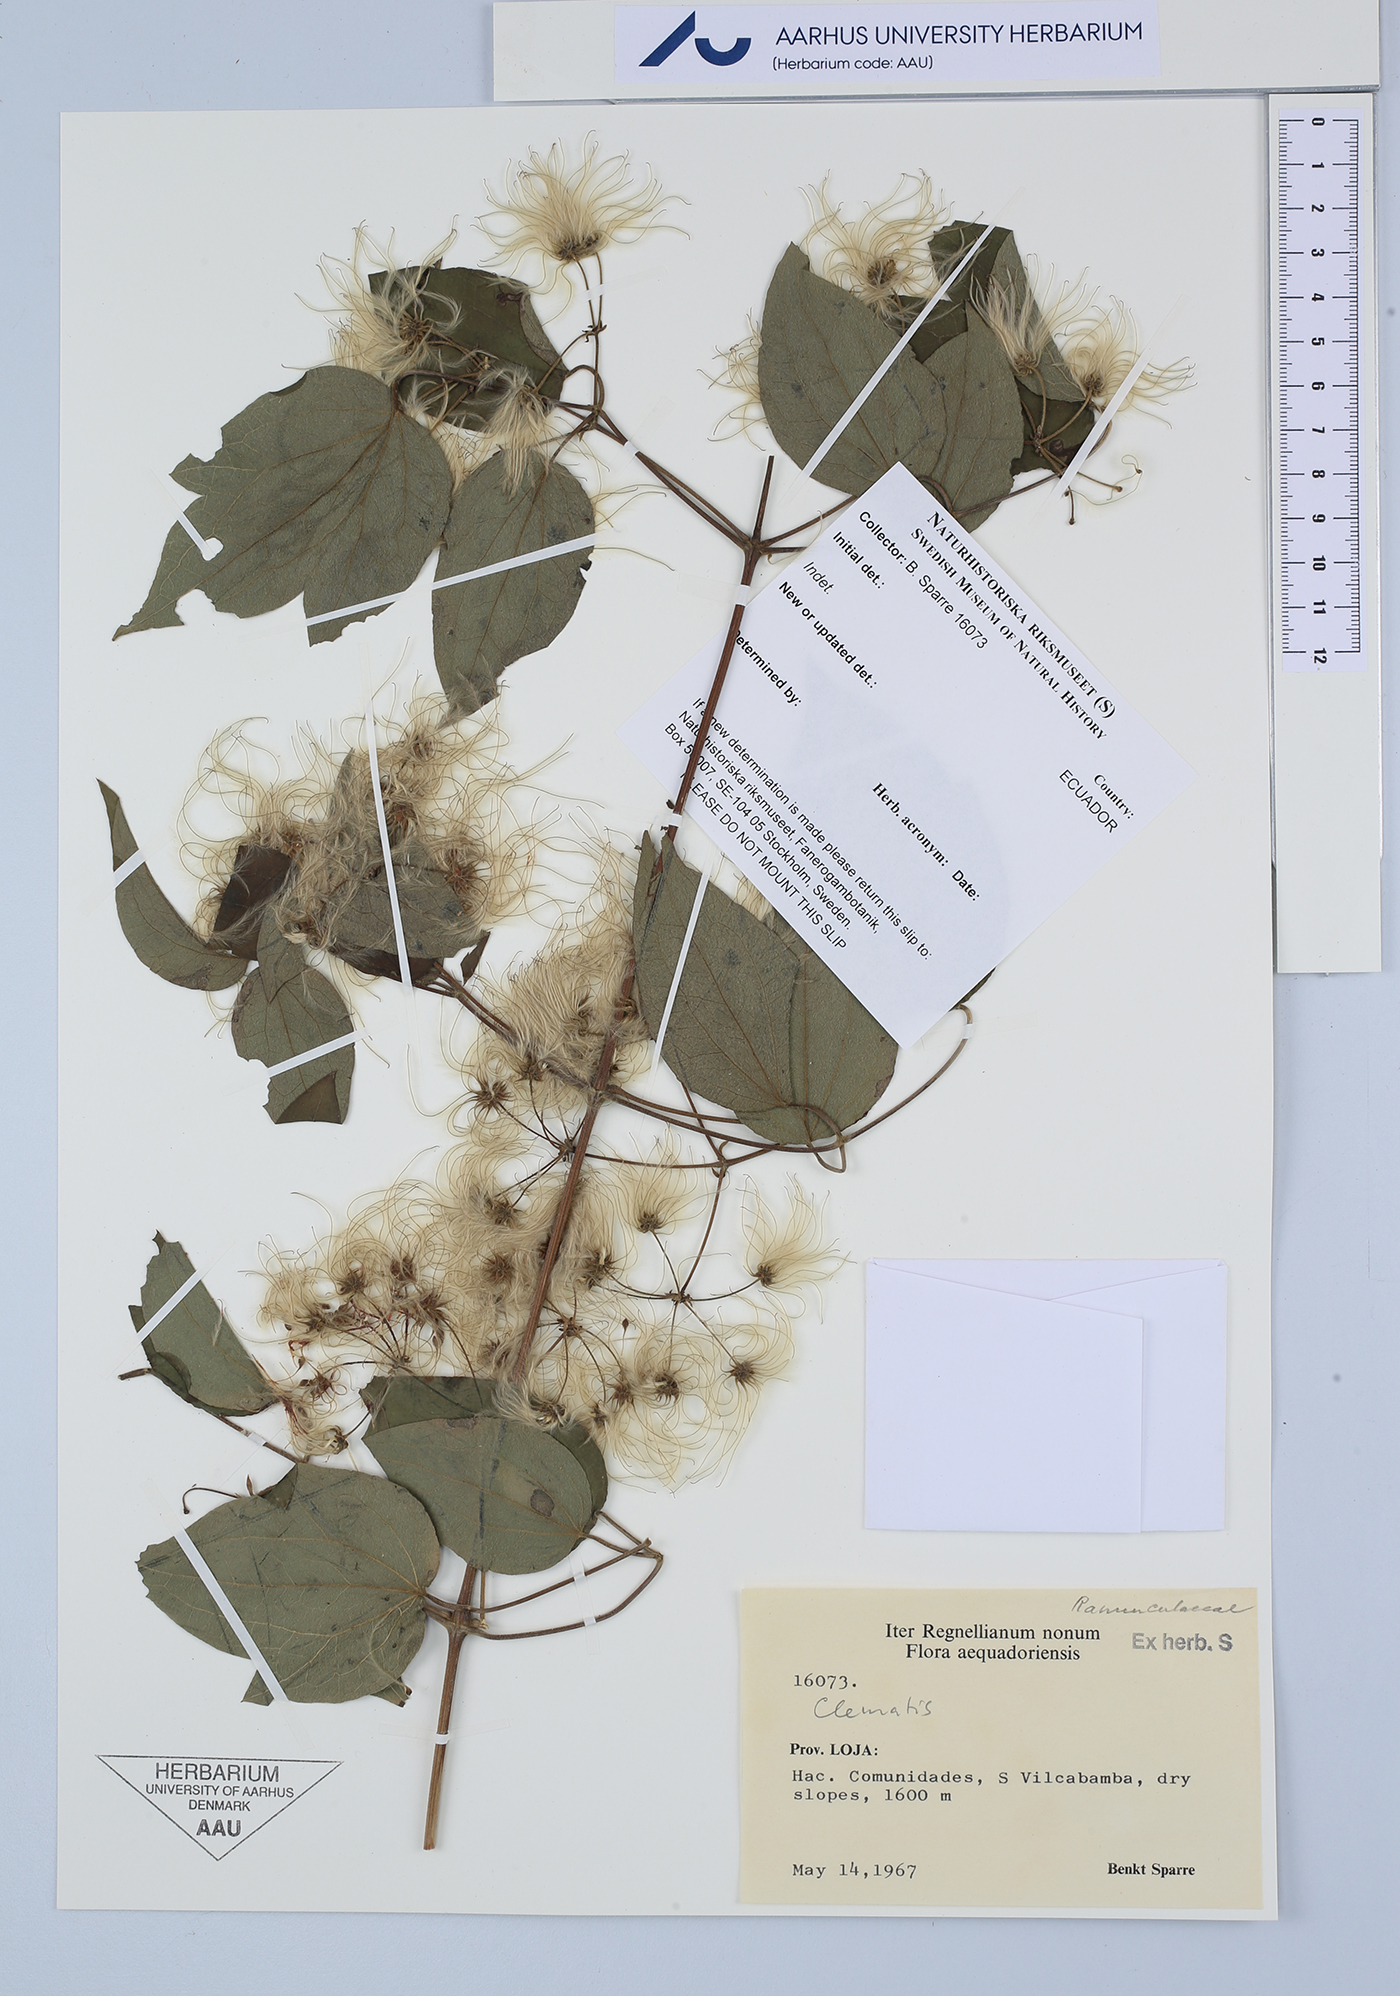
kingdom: Plantae
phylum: Tracheophyta
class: Magnoliopsida
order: Ranunculales
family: Ranunculaceae
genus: Clematis
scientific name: Clematis
